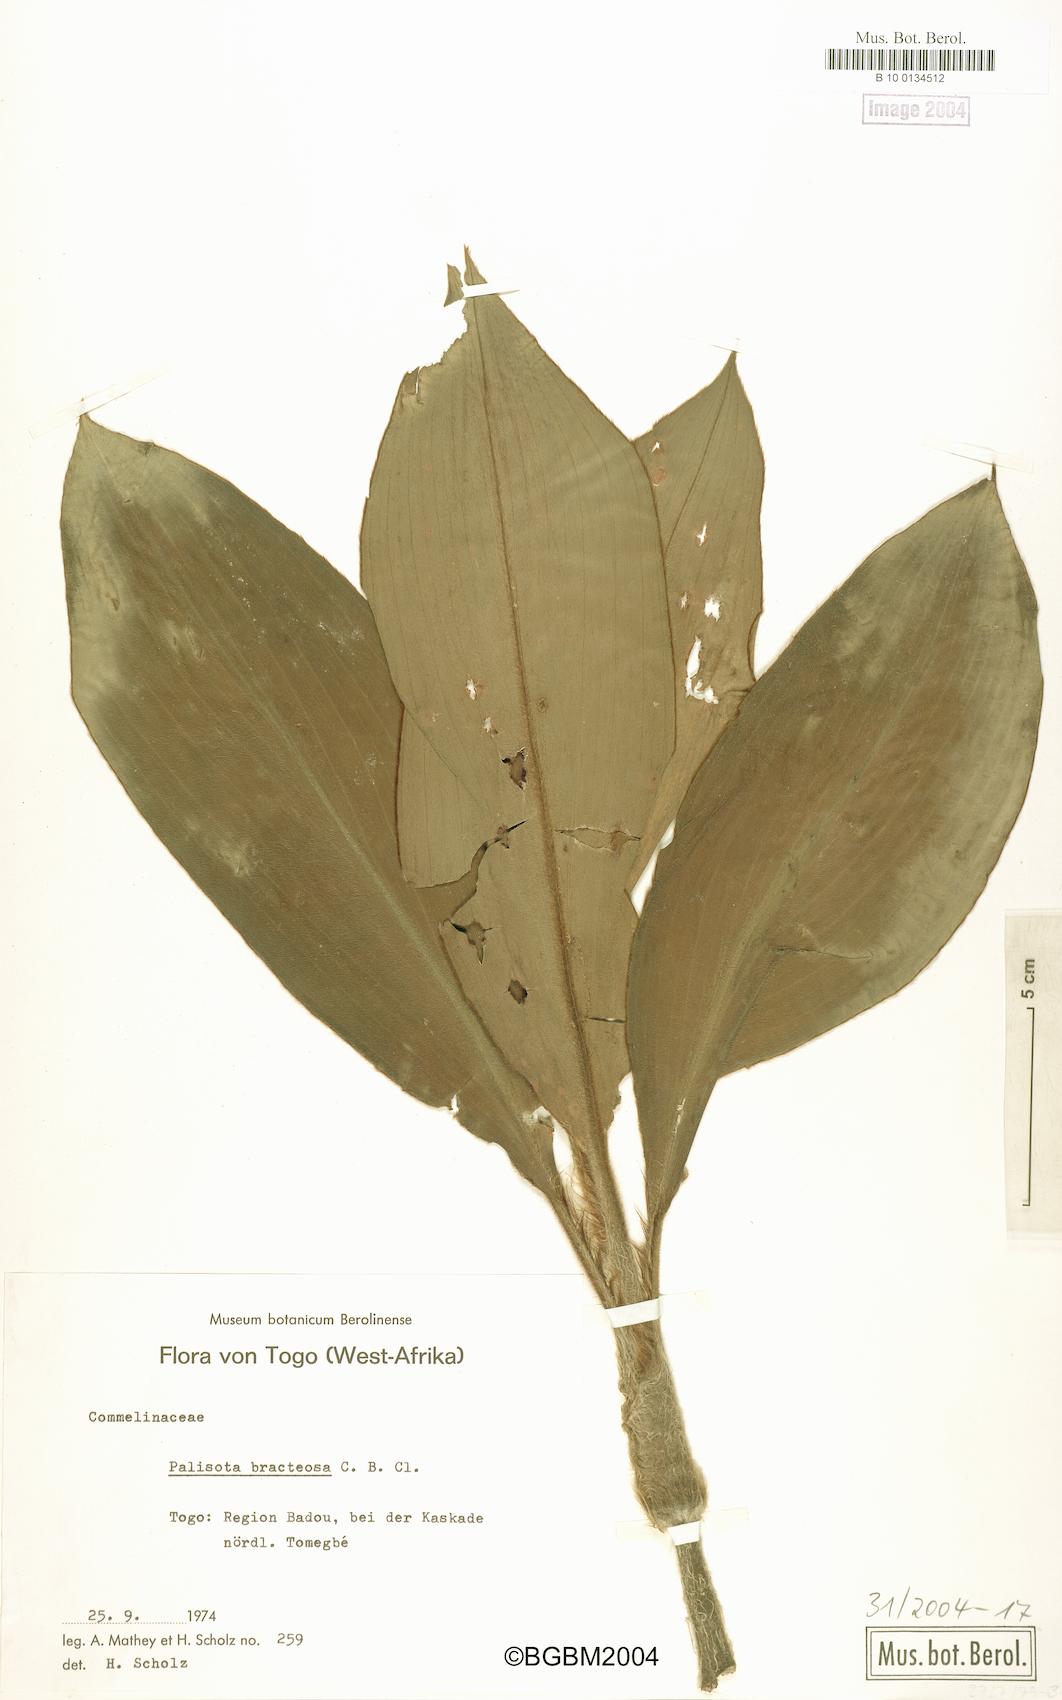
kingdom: Plantae
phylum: Tracheophyta
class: Liliopsida
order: Commelinales
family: Commelinaceae
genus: Palisota
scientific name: Palisota bracteosa
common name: Palisota
